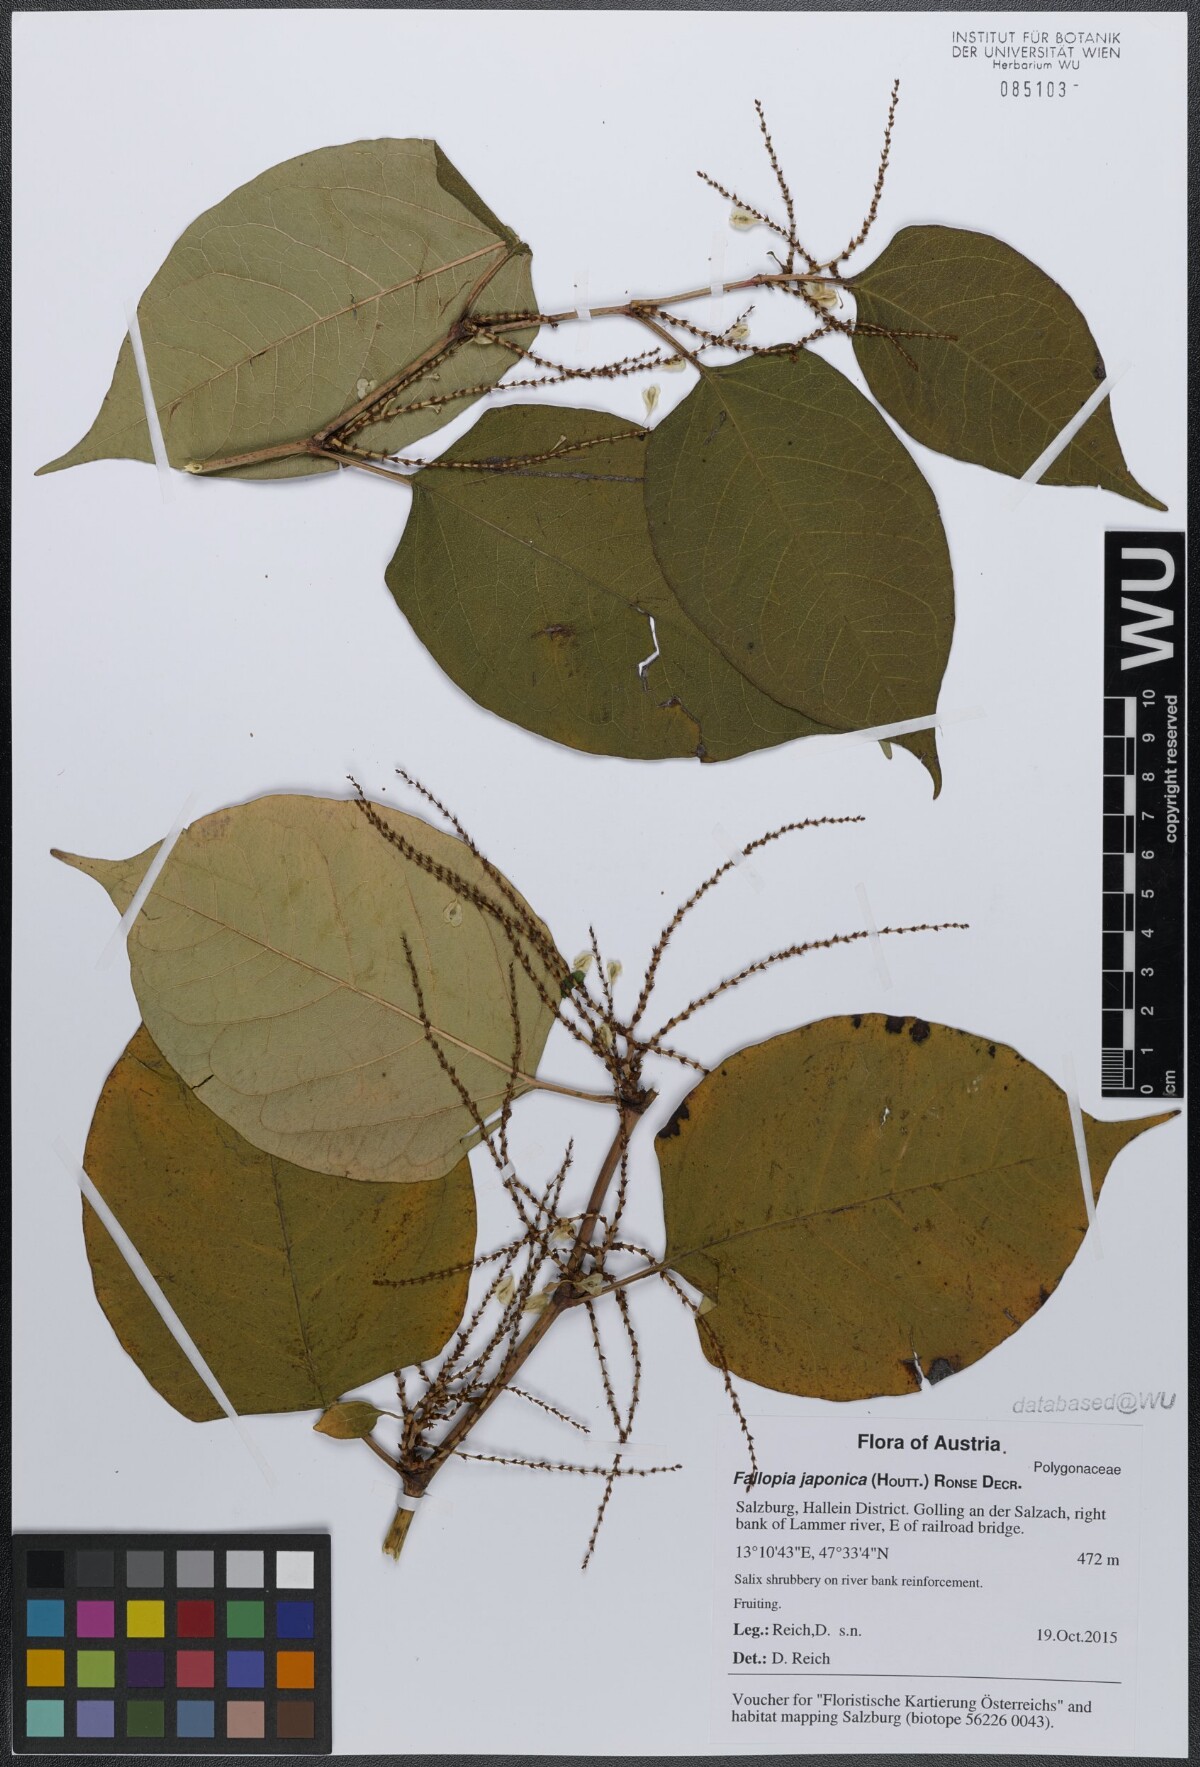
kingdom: Plantae
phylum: Tracheophyta
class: Magnoliopsida
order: Caryophyllales
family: Polygonaceae
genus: Reynoutria
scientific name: Reynoutria bohemica
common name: Bohemian knotweed
